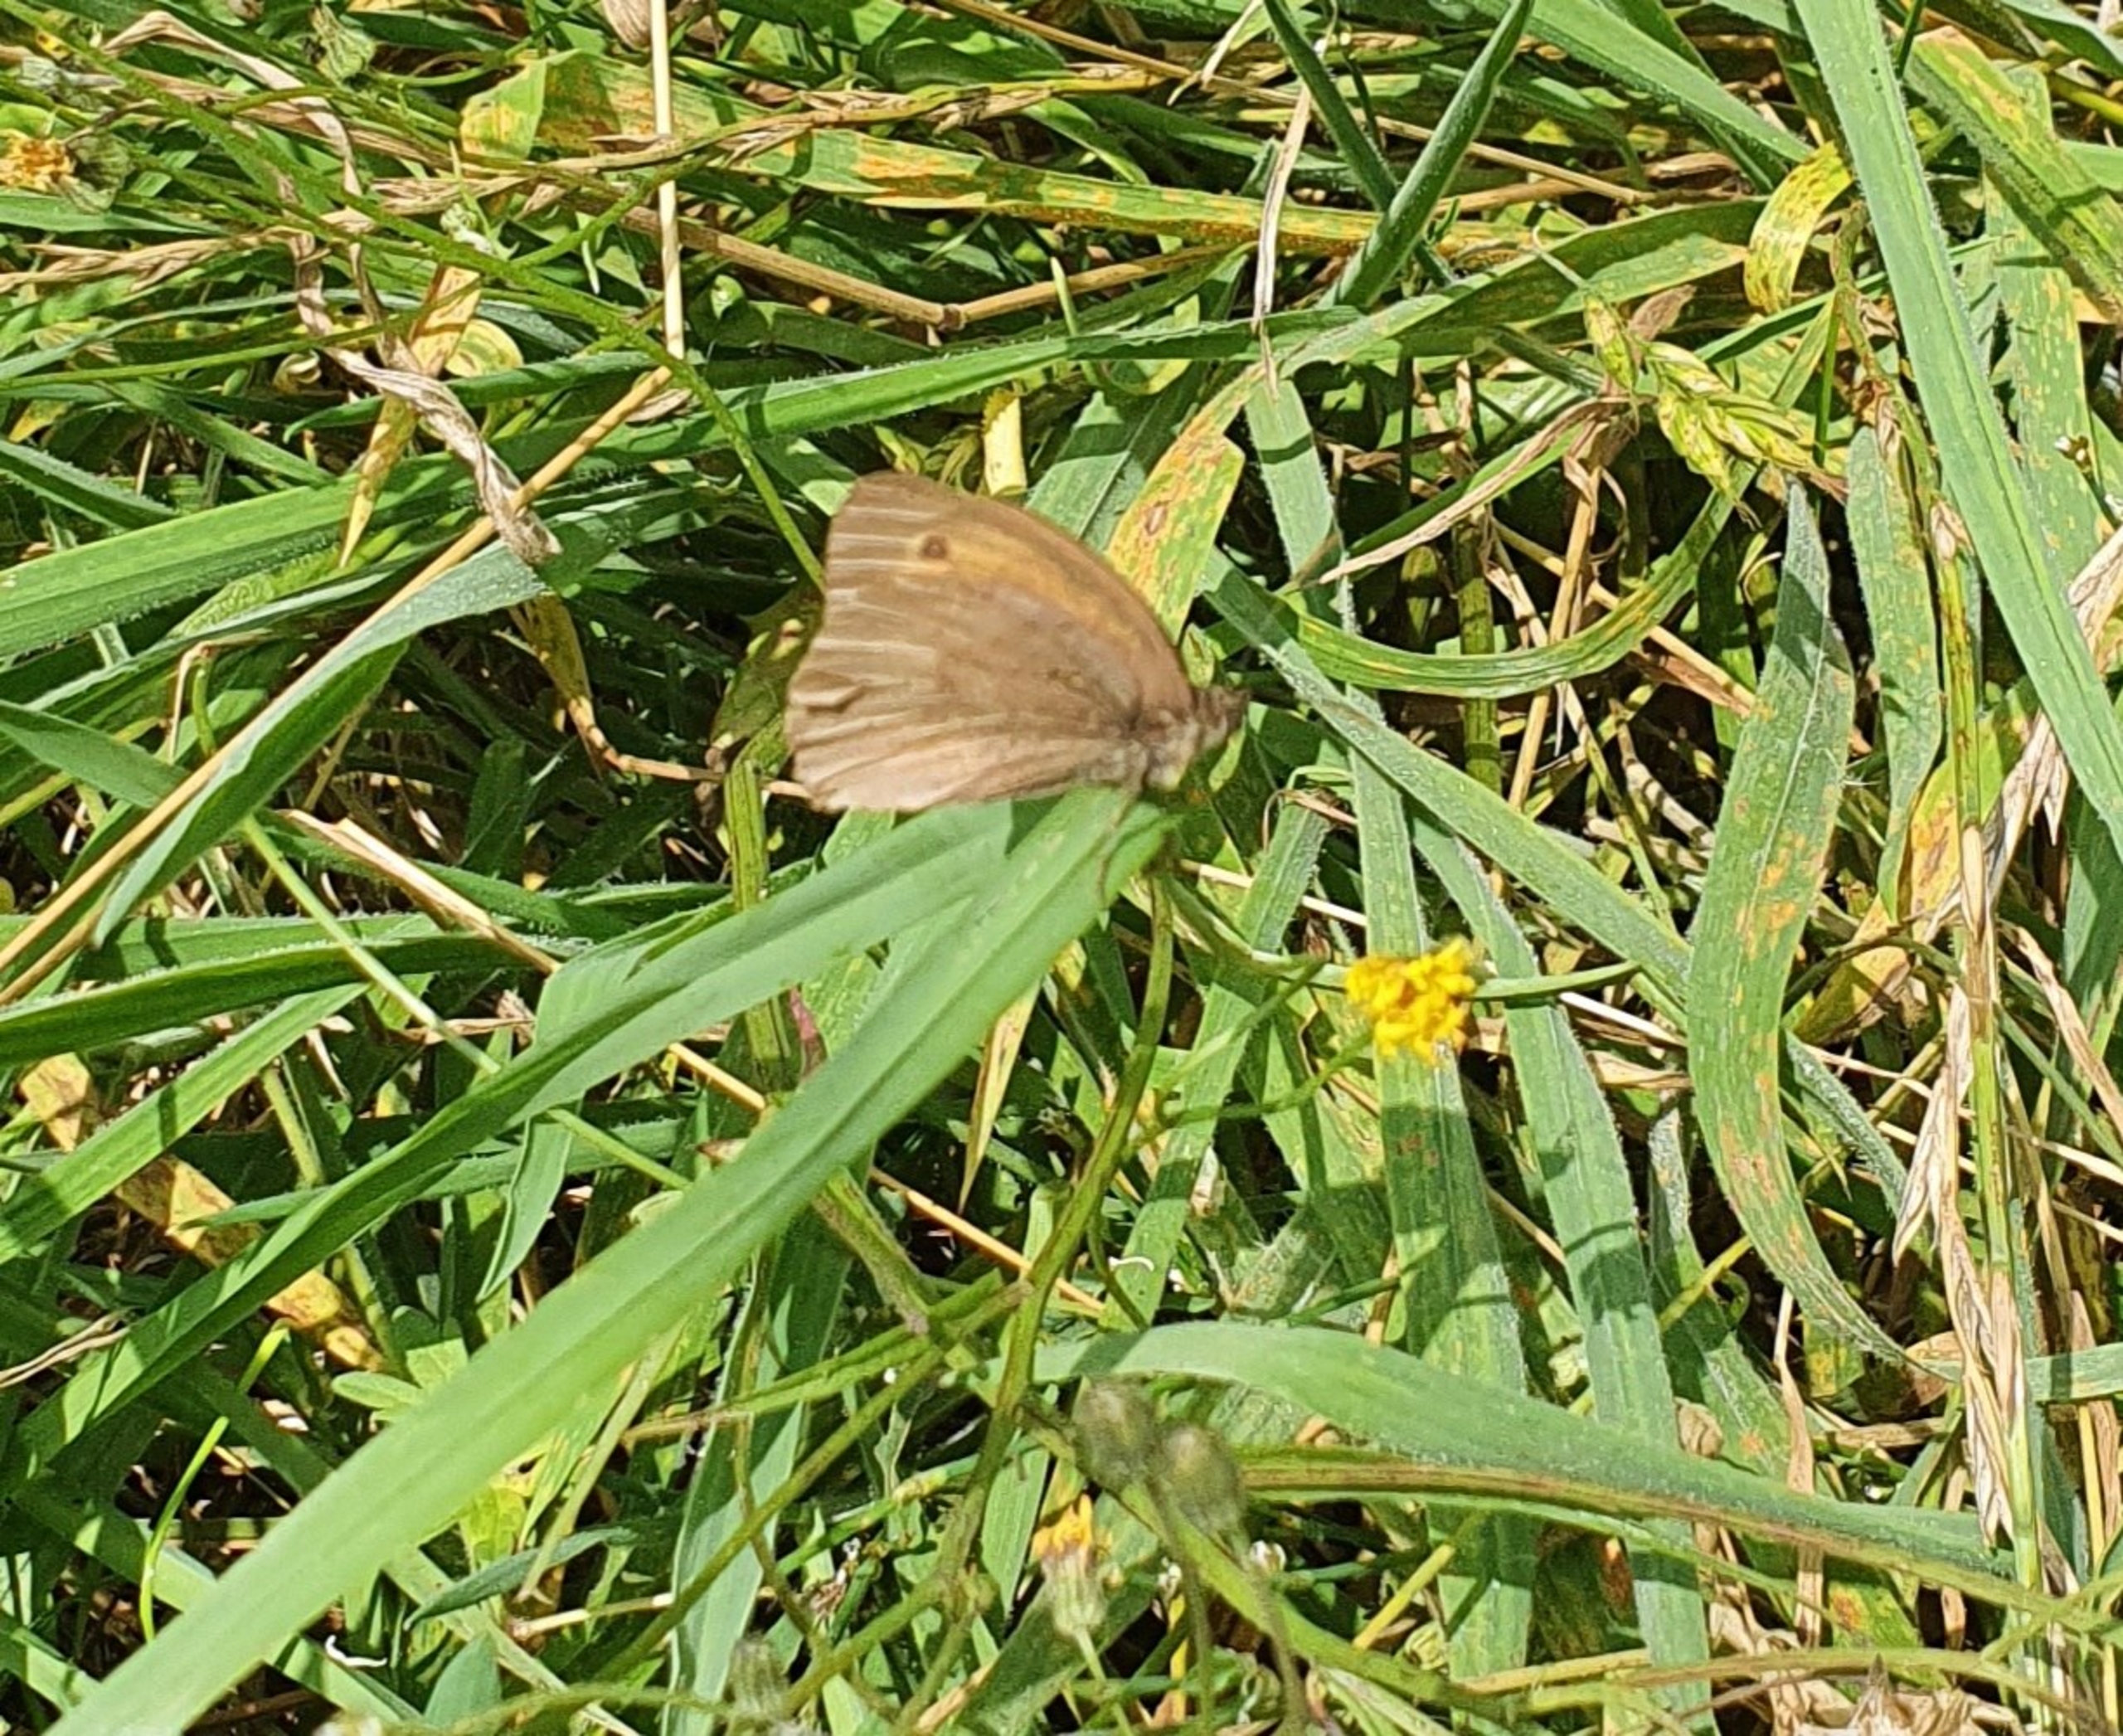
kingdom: Animalia
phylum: Arthropoda
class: Insecta
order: Lepidoptera
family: Nymphalidae
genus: Maniola
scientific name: Maniola jurtina
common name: Græsrandøje
